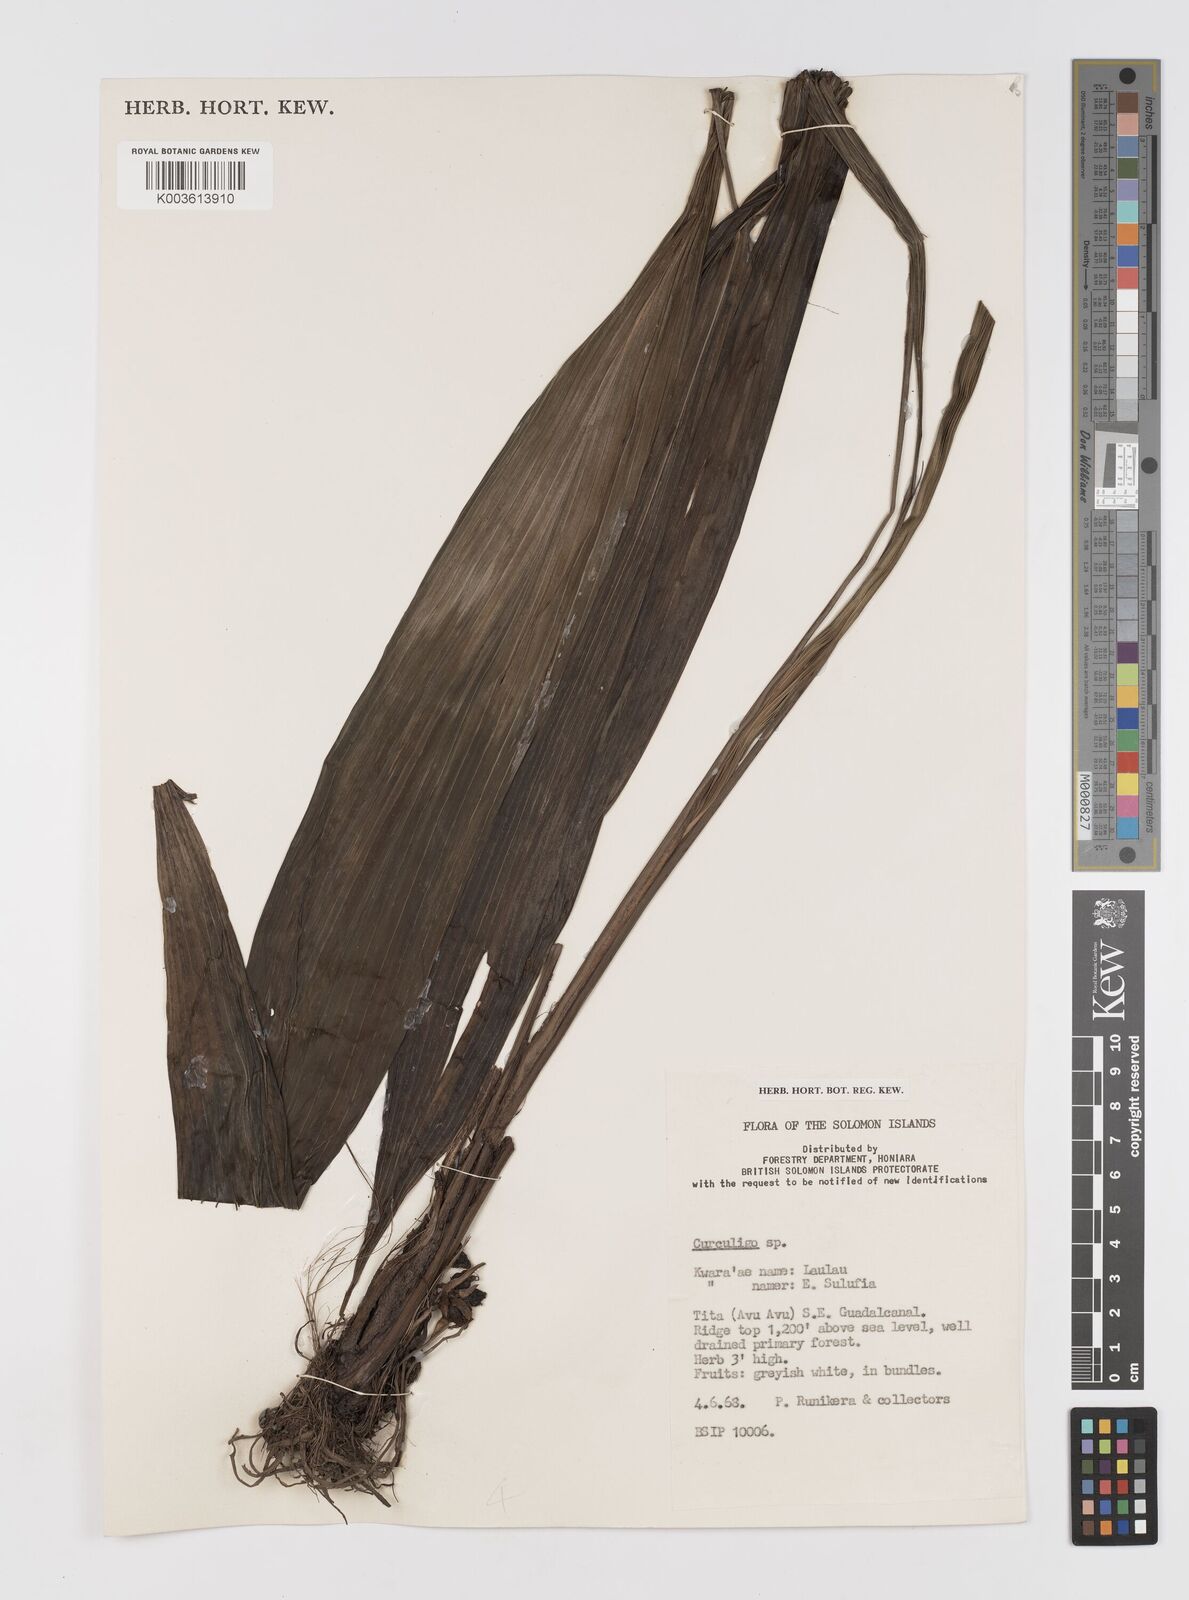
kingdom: Plantae
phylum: Tracheophyta
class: Liliopsida
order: Asparagales
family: Hypoxidaceae
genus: Curculigo
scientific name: Curculigo
